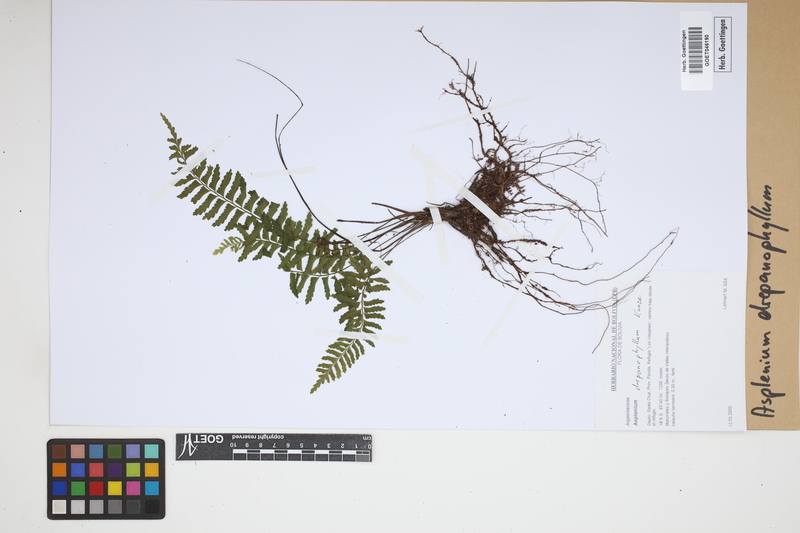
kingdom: Plantae
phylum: Tracheophyta
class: Polypodiopsida
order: Polypodiales
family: Aspleniaceae
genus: Asplenium
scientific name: Asplenium drepanophyllum
